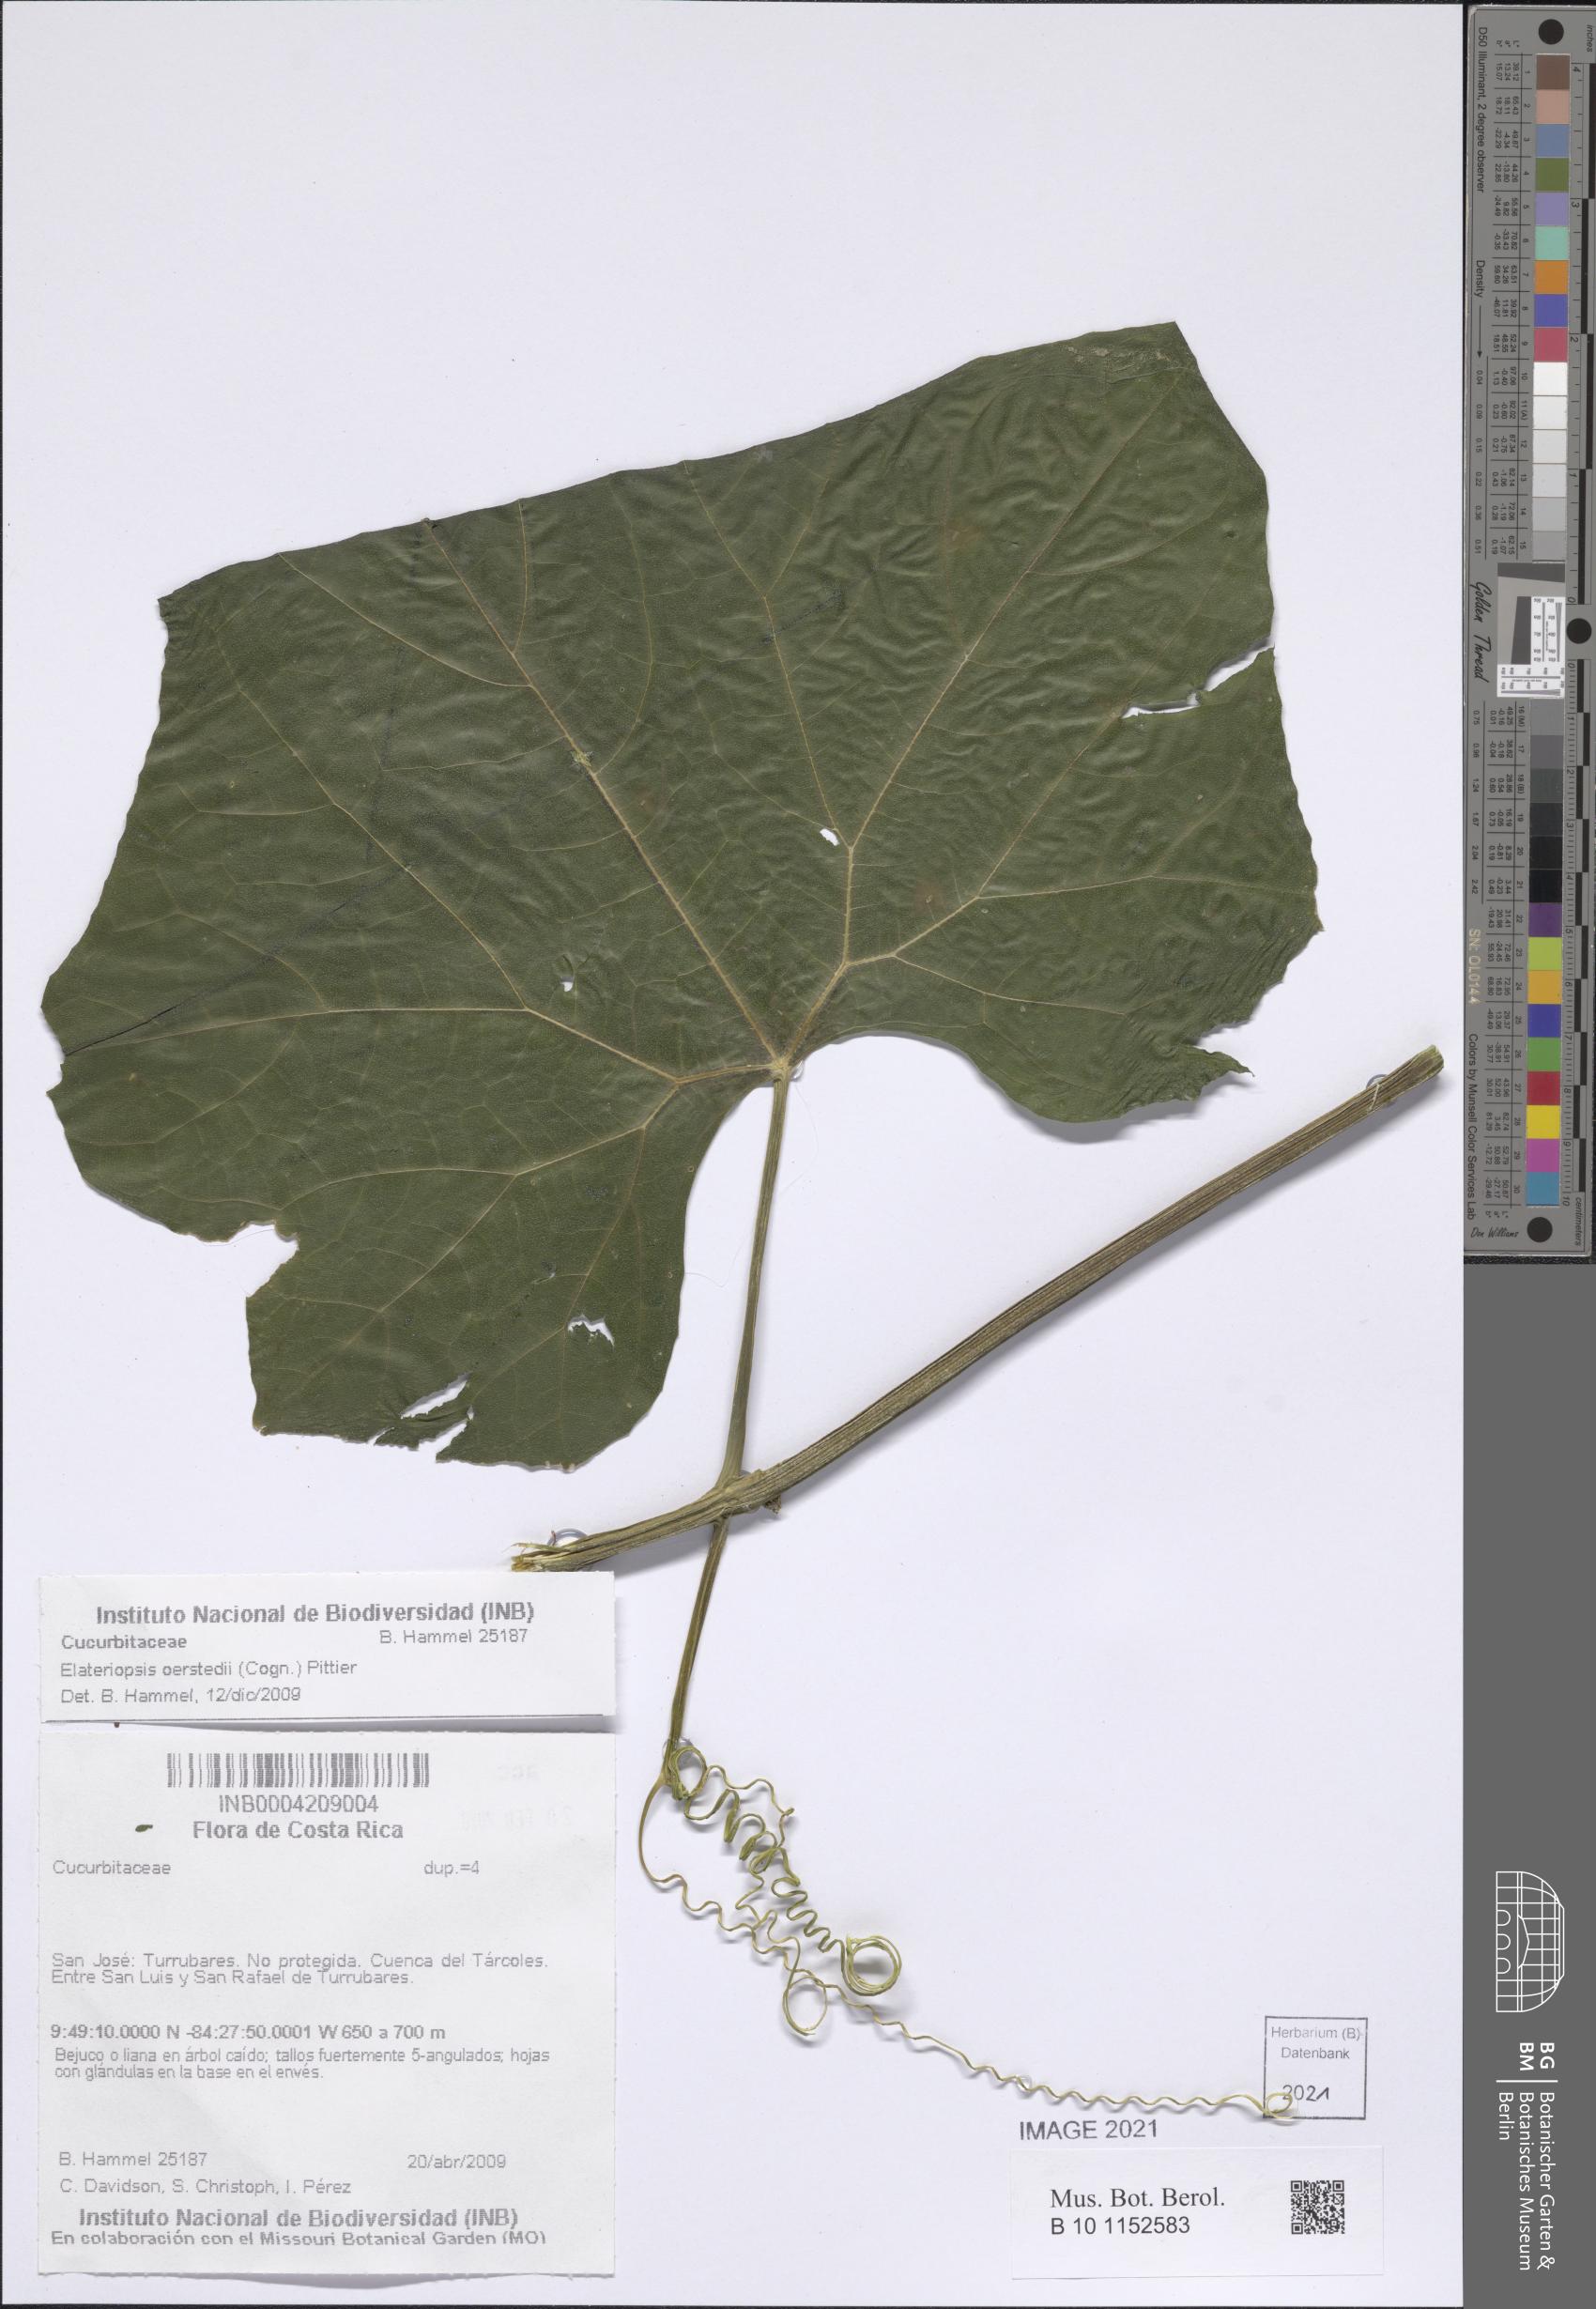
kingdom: Plantae
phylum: Tracheophyta
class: Magnoliopsida
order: Cucurbitales
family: Cucurbitaceae
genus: Hanburia
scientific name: Hanburia oerstedii
